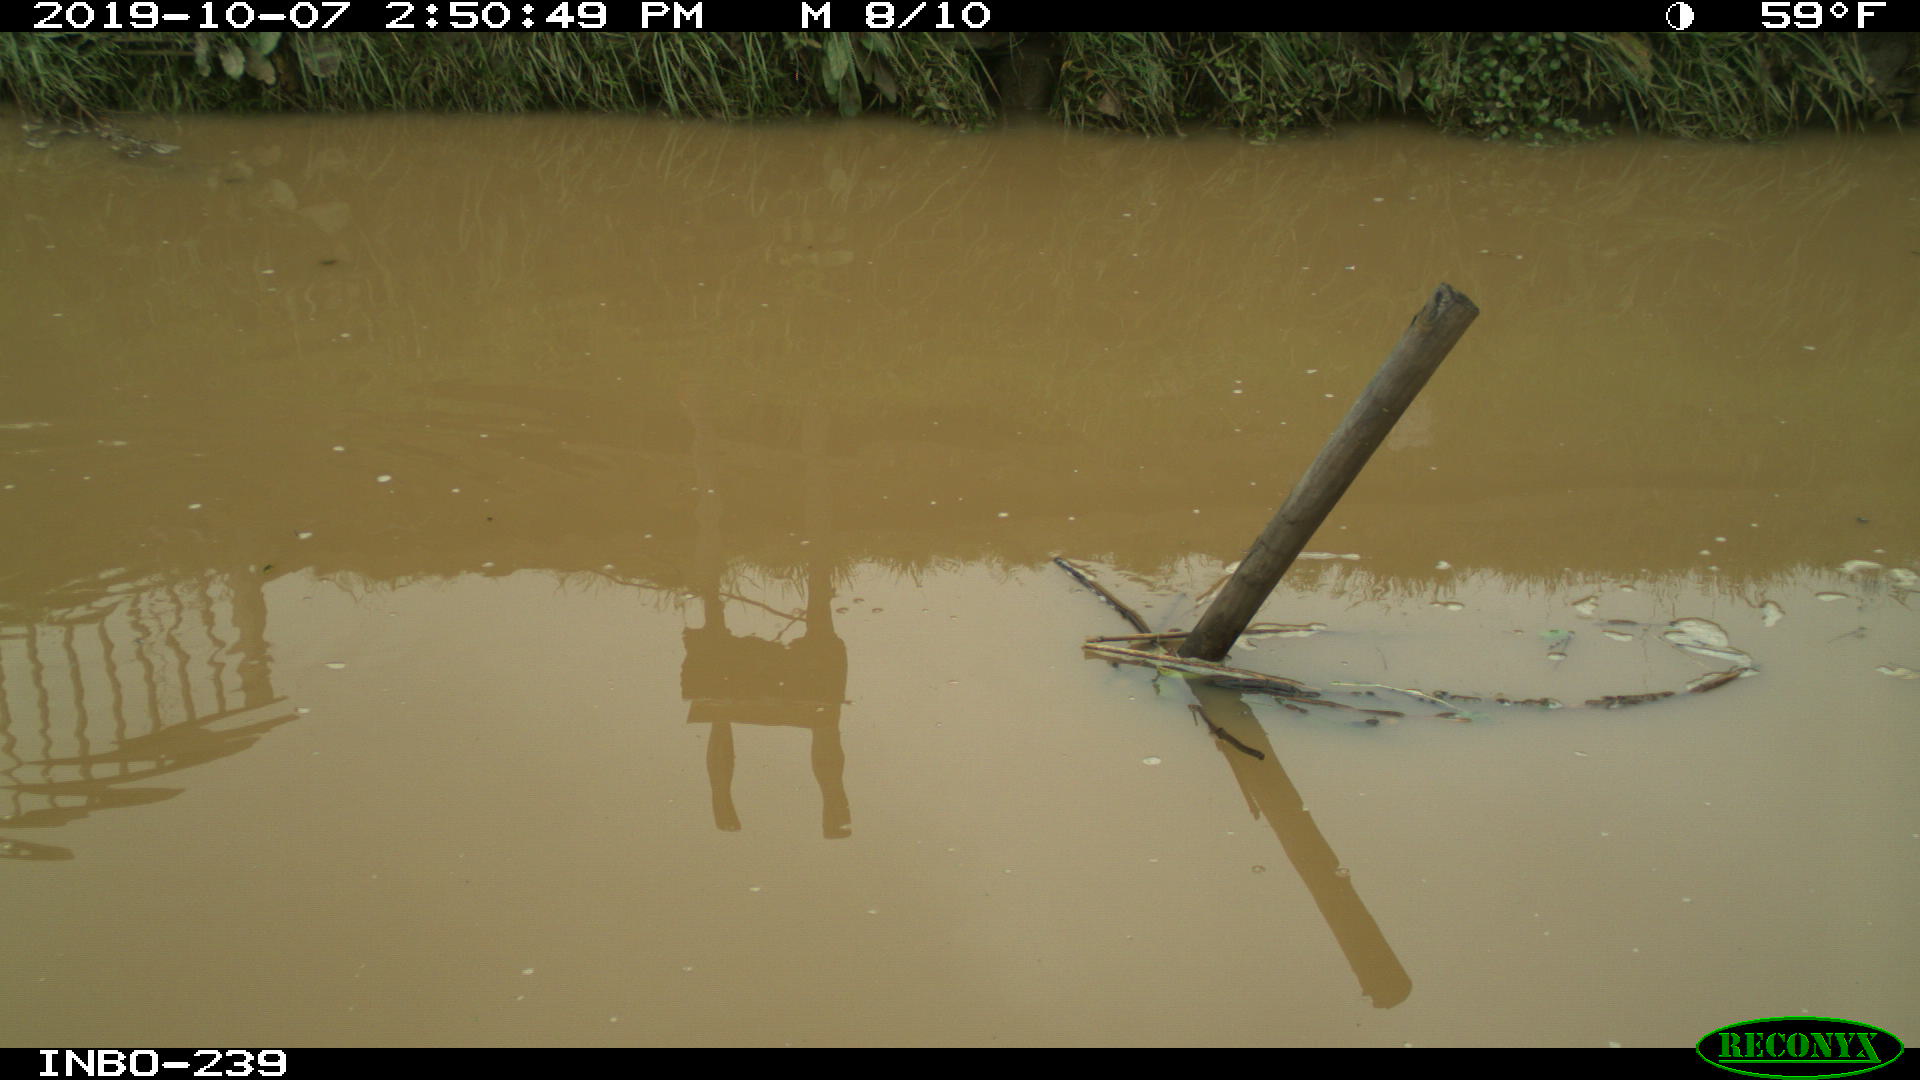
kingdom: Animalia
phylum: Chordata
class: Aves
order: Gruiformes
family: Rallidae
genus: Gallinula
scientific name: Gallinula chloropus
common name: Common moorhen
